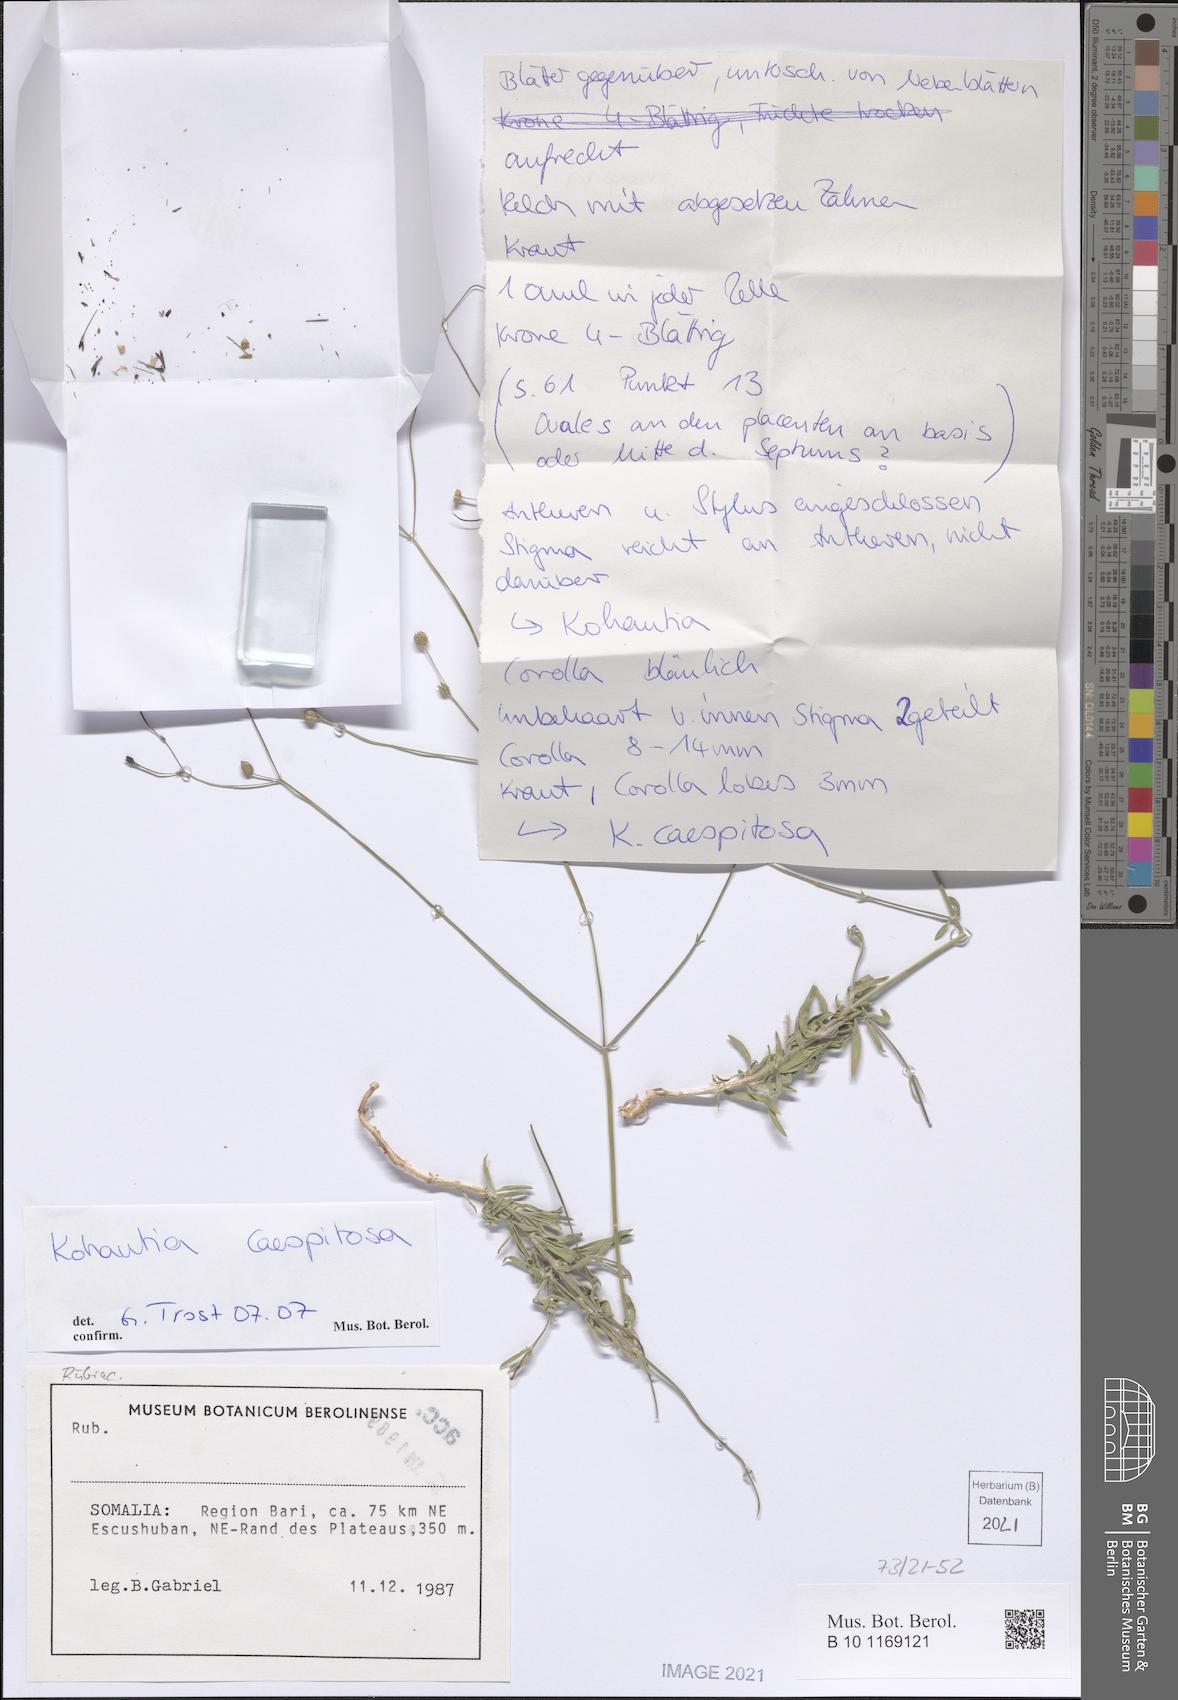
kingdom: Plantae
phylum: Tracheophyta
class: Magnoliopsida
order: Gentianales
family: Rubiaceae
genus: Kohautia
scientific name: Kohautia caespitosa
